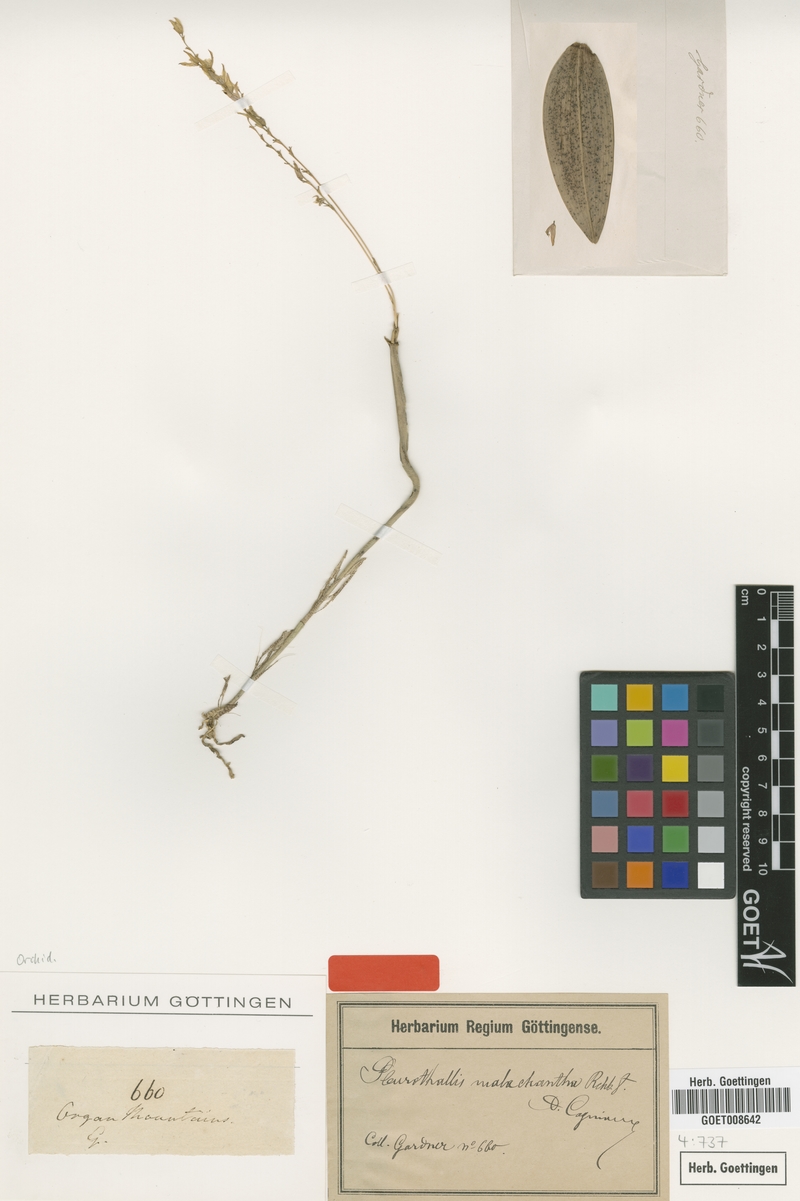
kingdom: Plantae
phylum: Tracheophyta
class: Liliopsida
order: Asparagales
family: Orchidaceae
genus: Acianthera
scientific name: Acianthera malachantha
